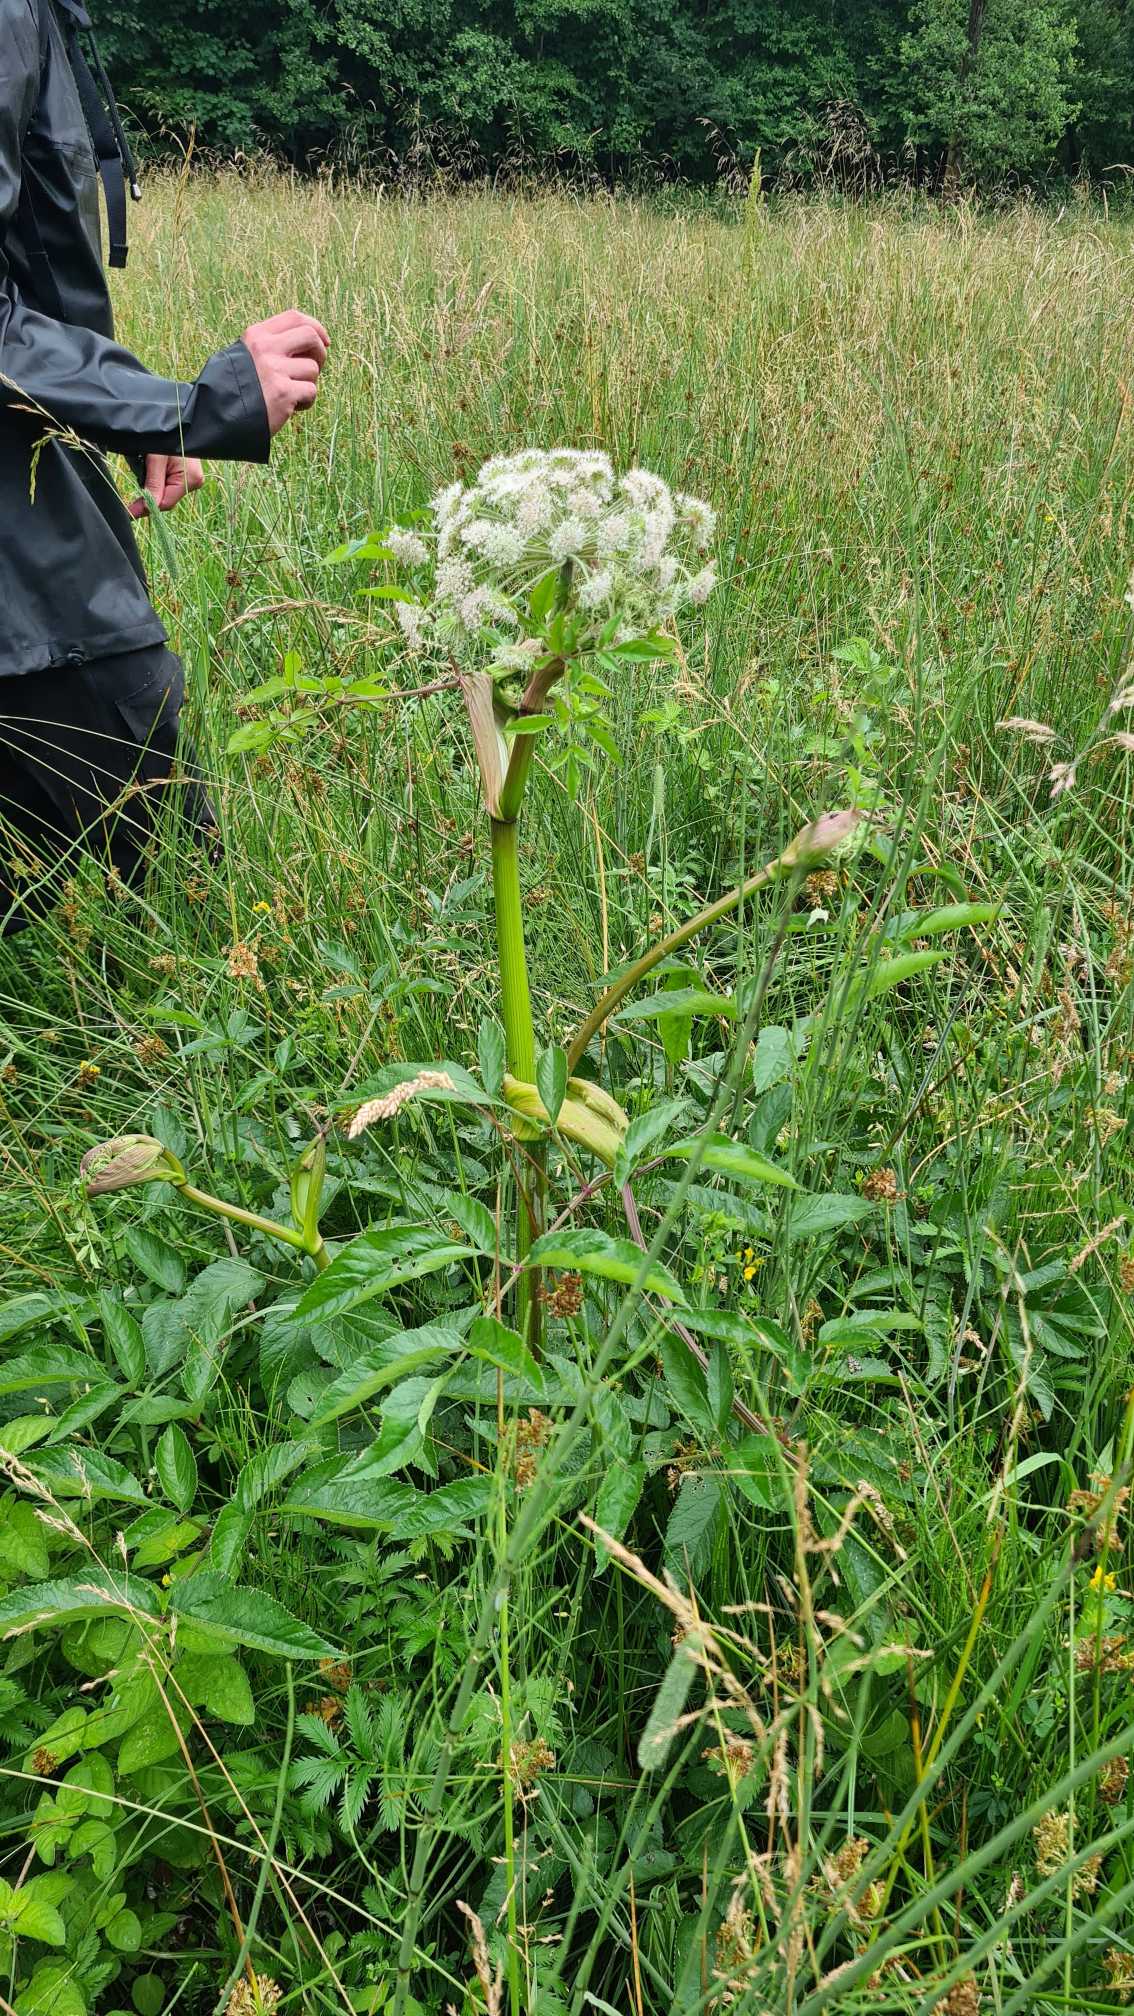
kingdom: Plantae
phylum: Tracheophyta
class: Magnoliopsida
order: Apiales
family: Apiaceae
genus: Angelica
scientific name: Angelica sylvestris
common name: Angelik
